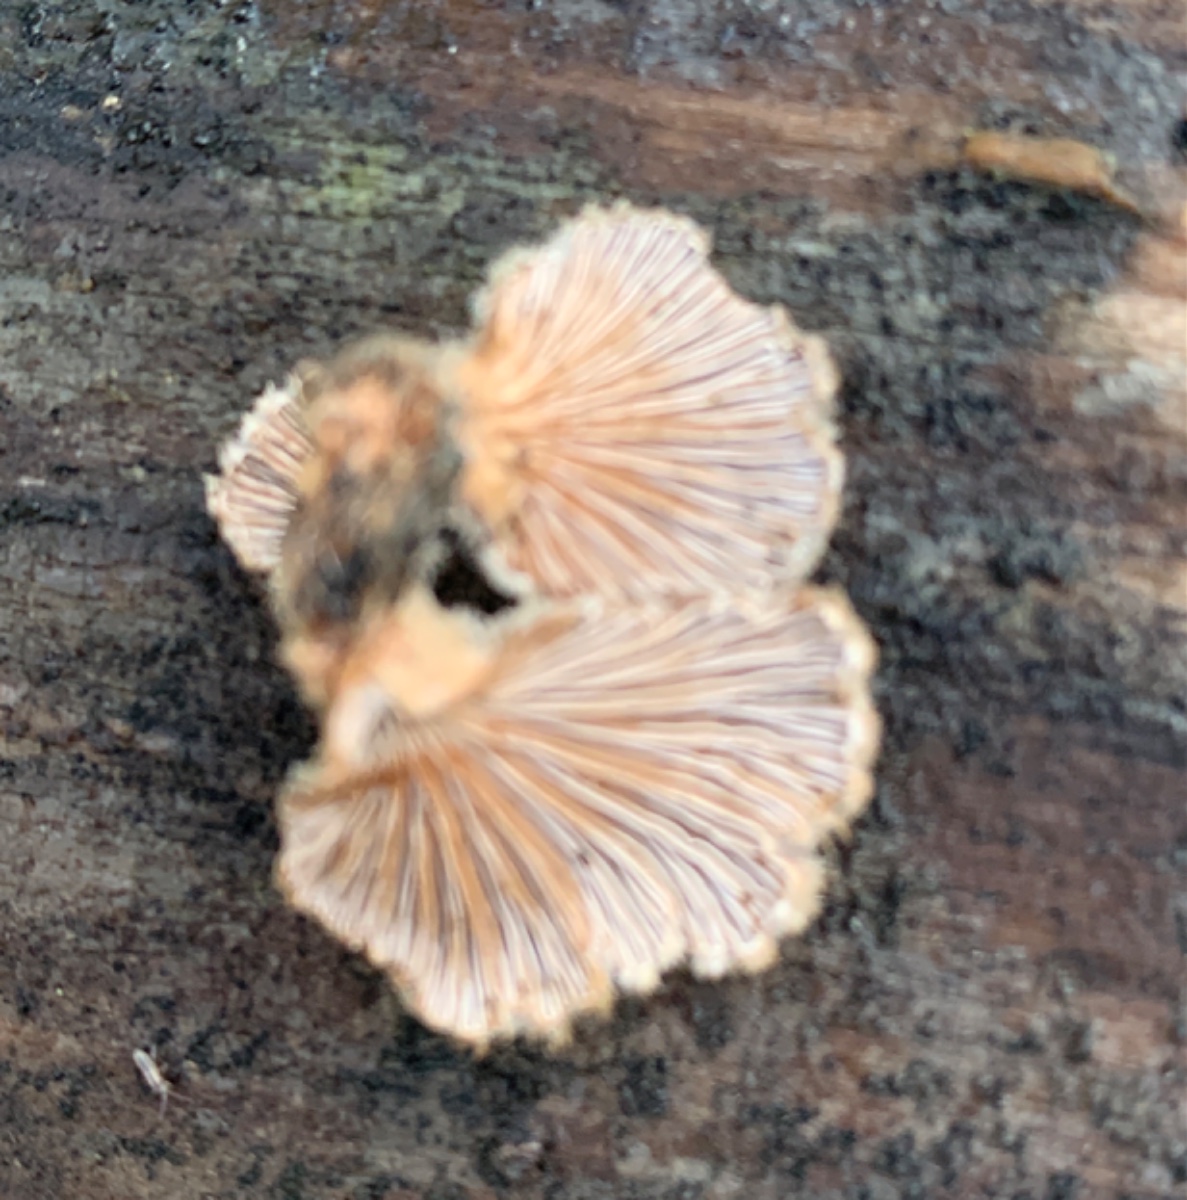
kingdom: Fungi
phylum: Basidiomycota
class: Agaricomycetes
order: Agaricales
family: Schizophyllaceae
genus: Schizophyllum
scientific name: Schizophyllum commune
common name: kløvblad
